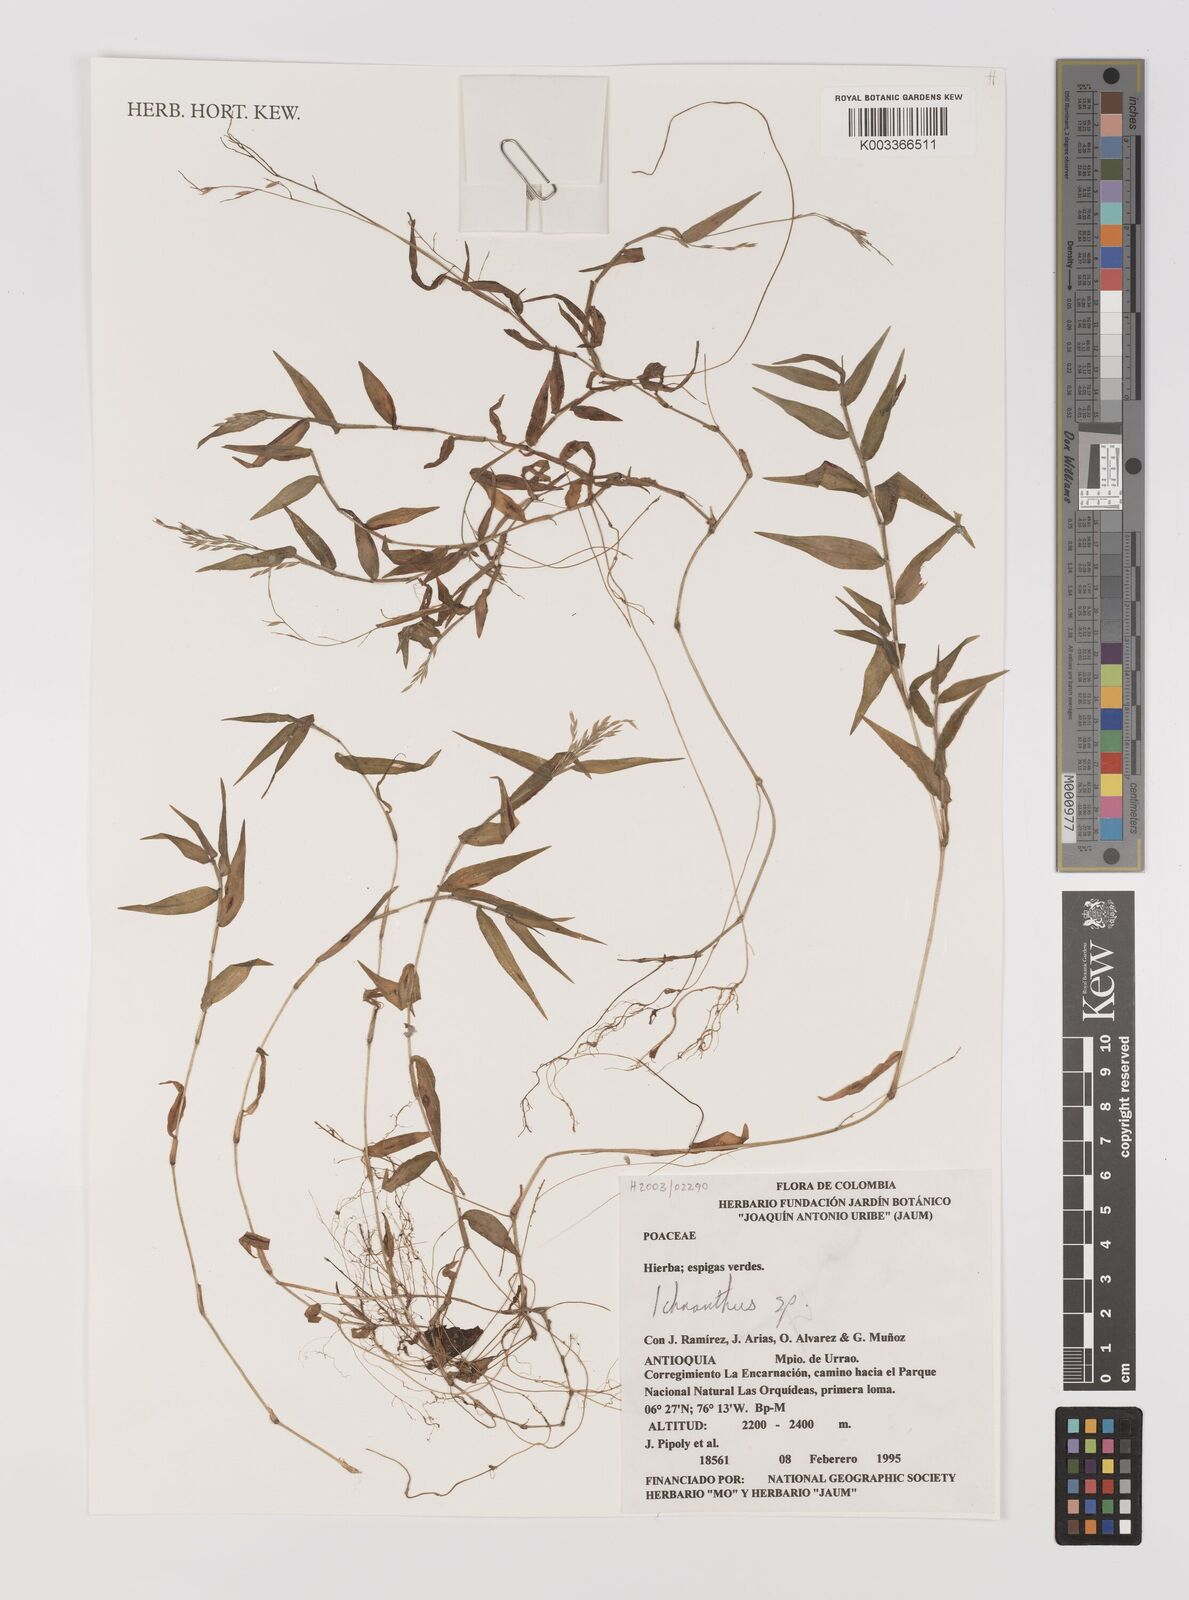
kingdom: Plantae
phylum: Tracheophyta
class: Liliopsida
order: Poales
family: Poaceae
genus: Ichnanthus
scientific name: Ichnanthus
